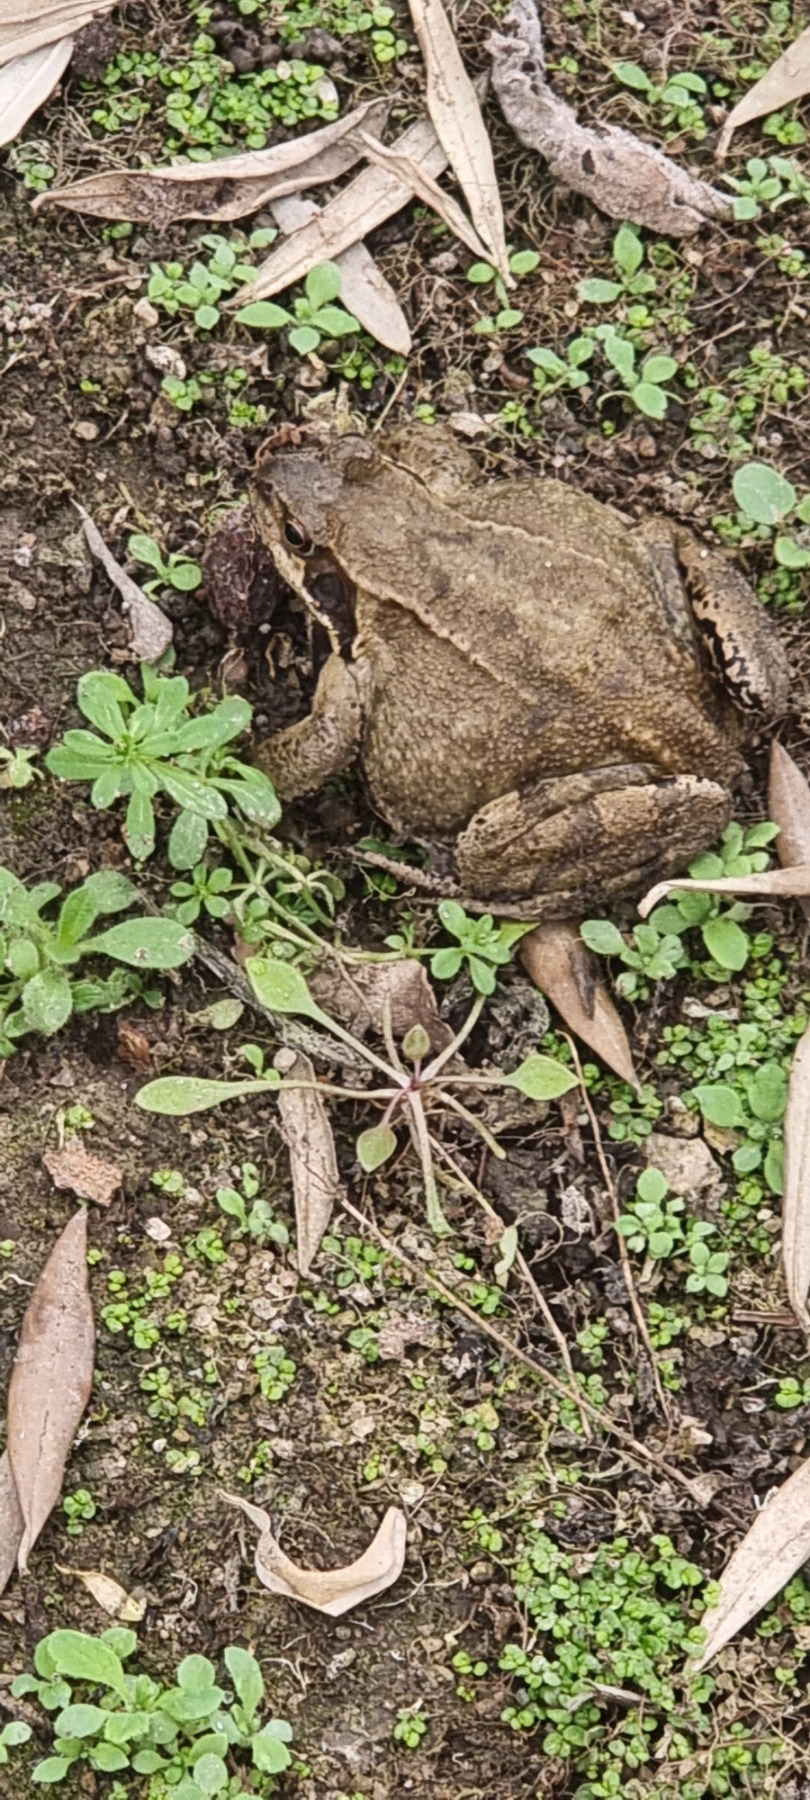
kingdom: Animalia
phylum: Chordata
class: Amphibia
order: Anura
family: Ranidae
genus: Rana
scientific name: Rana temporaria
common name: Butsnudet frø
